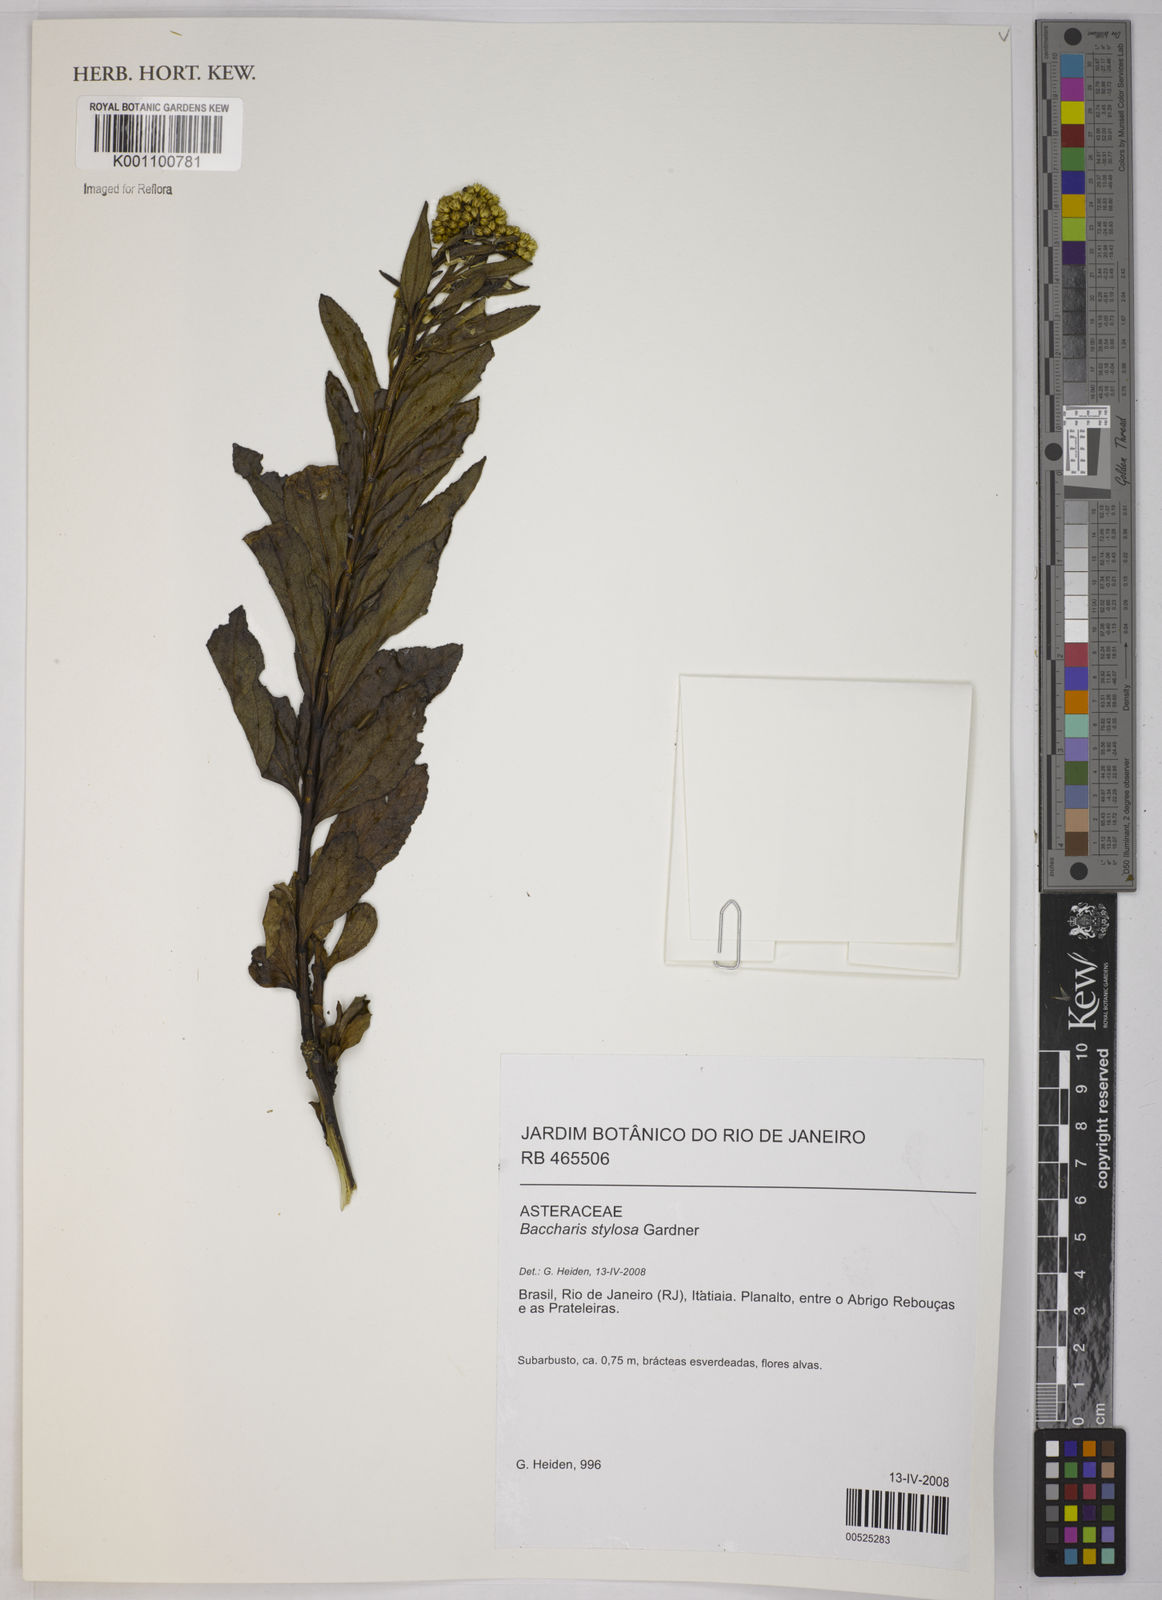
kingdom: Plantae
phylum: Tracheophyta
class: Magnoliopsida
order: Asterales
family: Asteraceae
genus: Baccharis
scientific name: Baccharis stylosa
